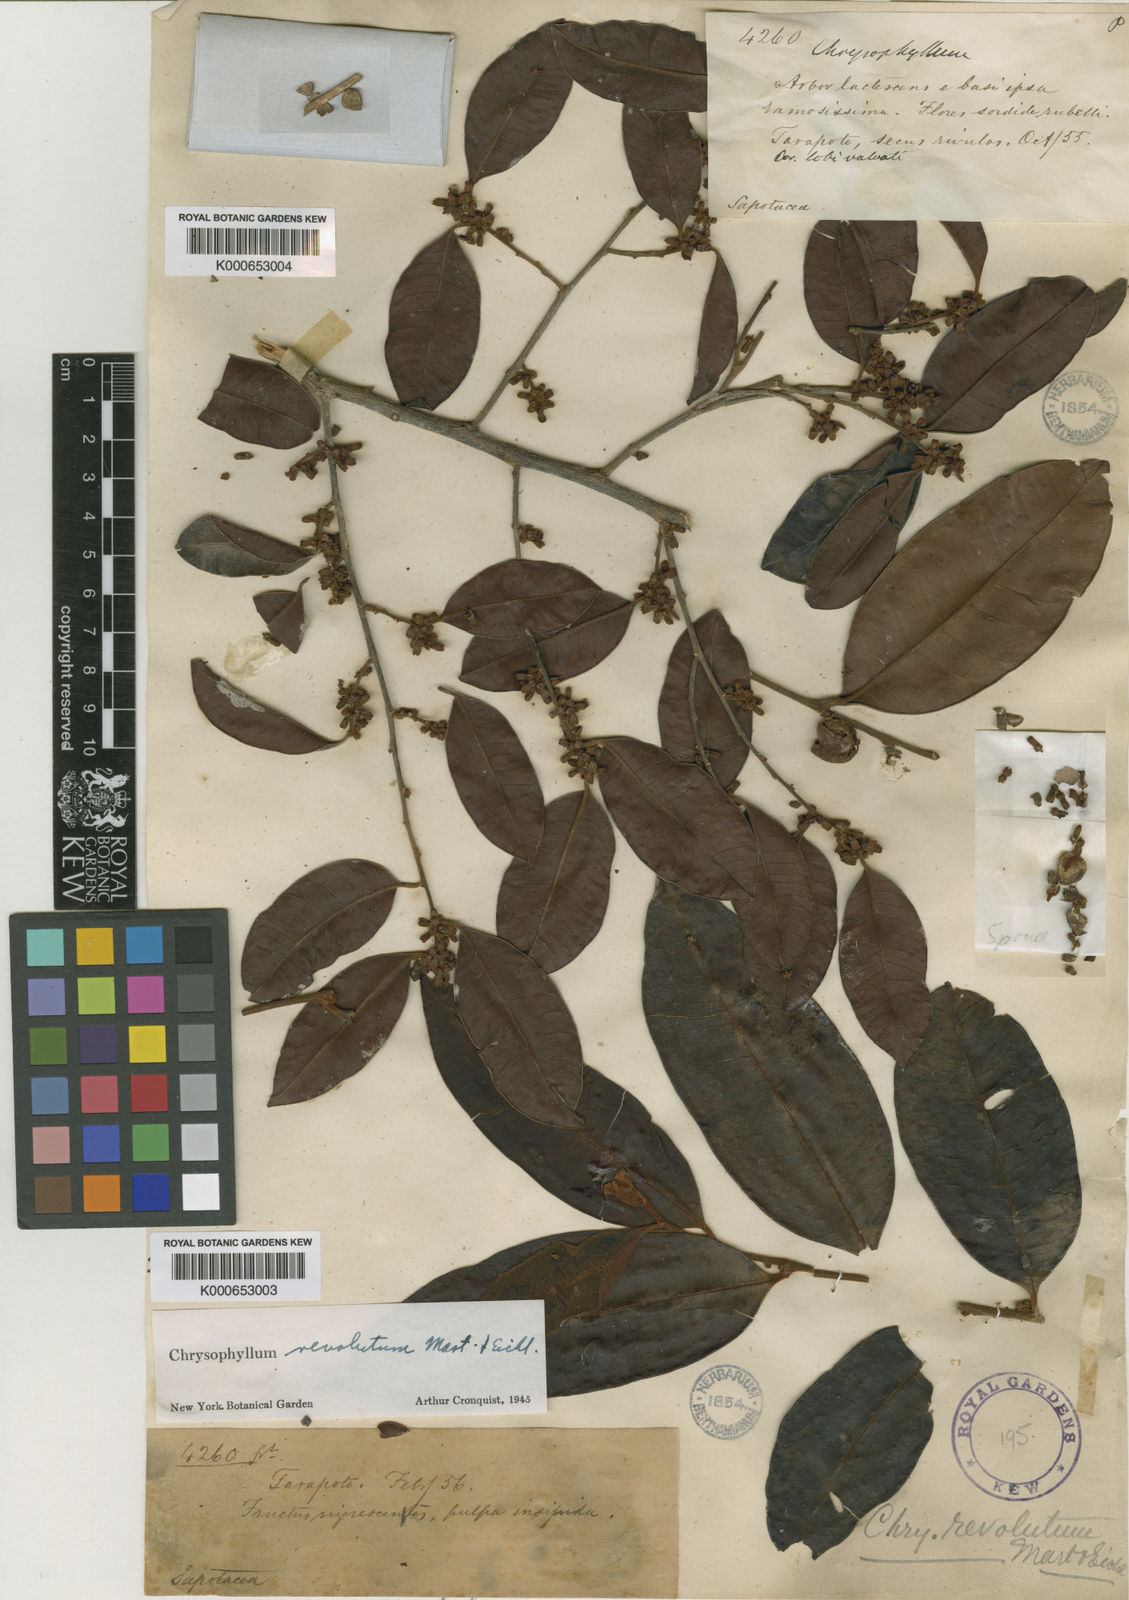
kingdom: Plantae
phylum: Tracheophyta
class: Magnoliopsida
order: Ericales
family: Sapotaceae
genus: Chrysophyllum
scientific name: Chrysophyllum revolutum
